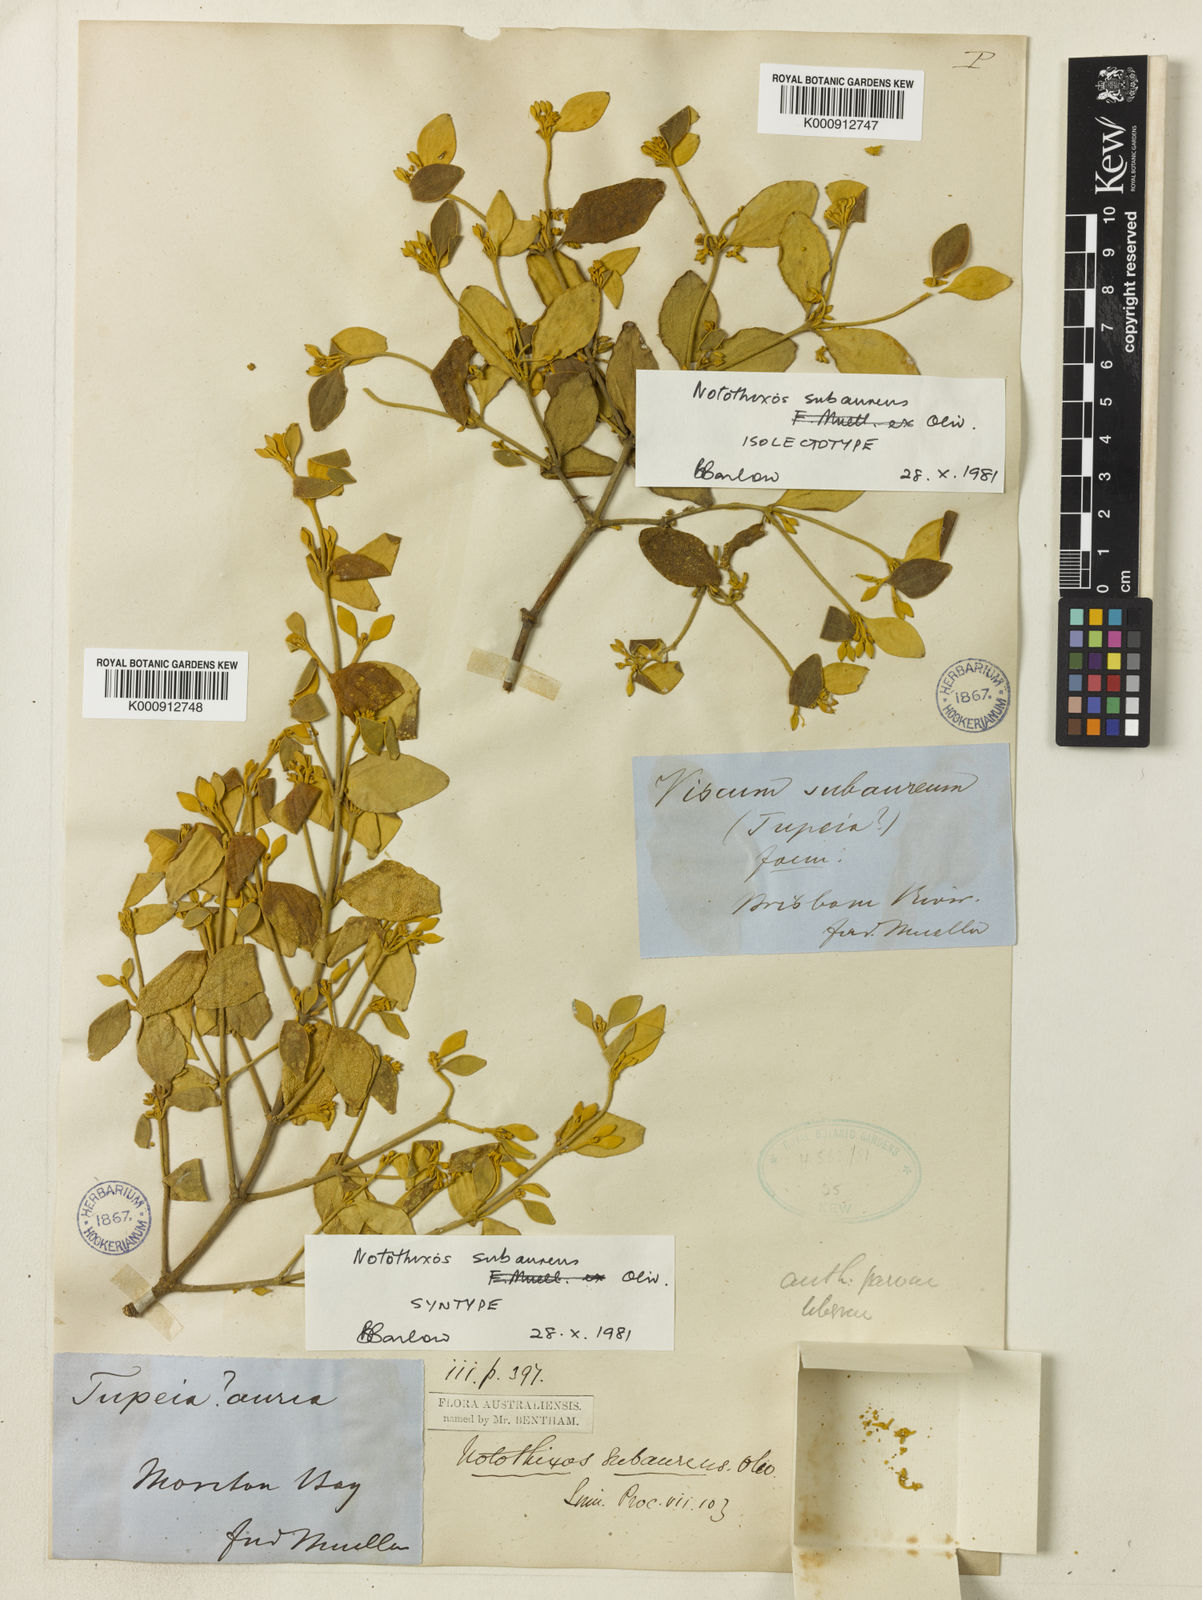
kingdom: Plantae
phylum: Tracheophyta
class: Magnoliopsida
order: Santalales
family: Viscaceae
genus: Notothixos
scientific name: Notothixos subaureus
